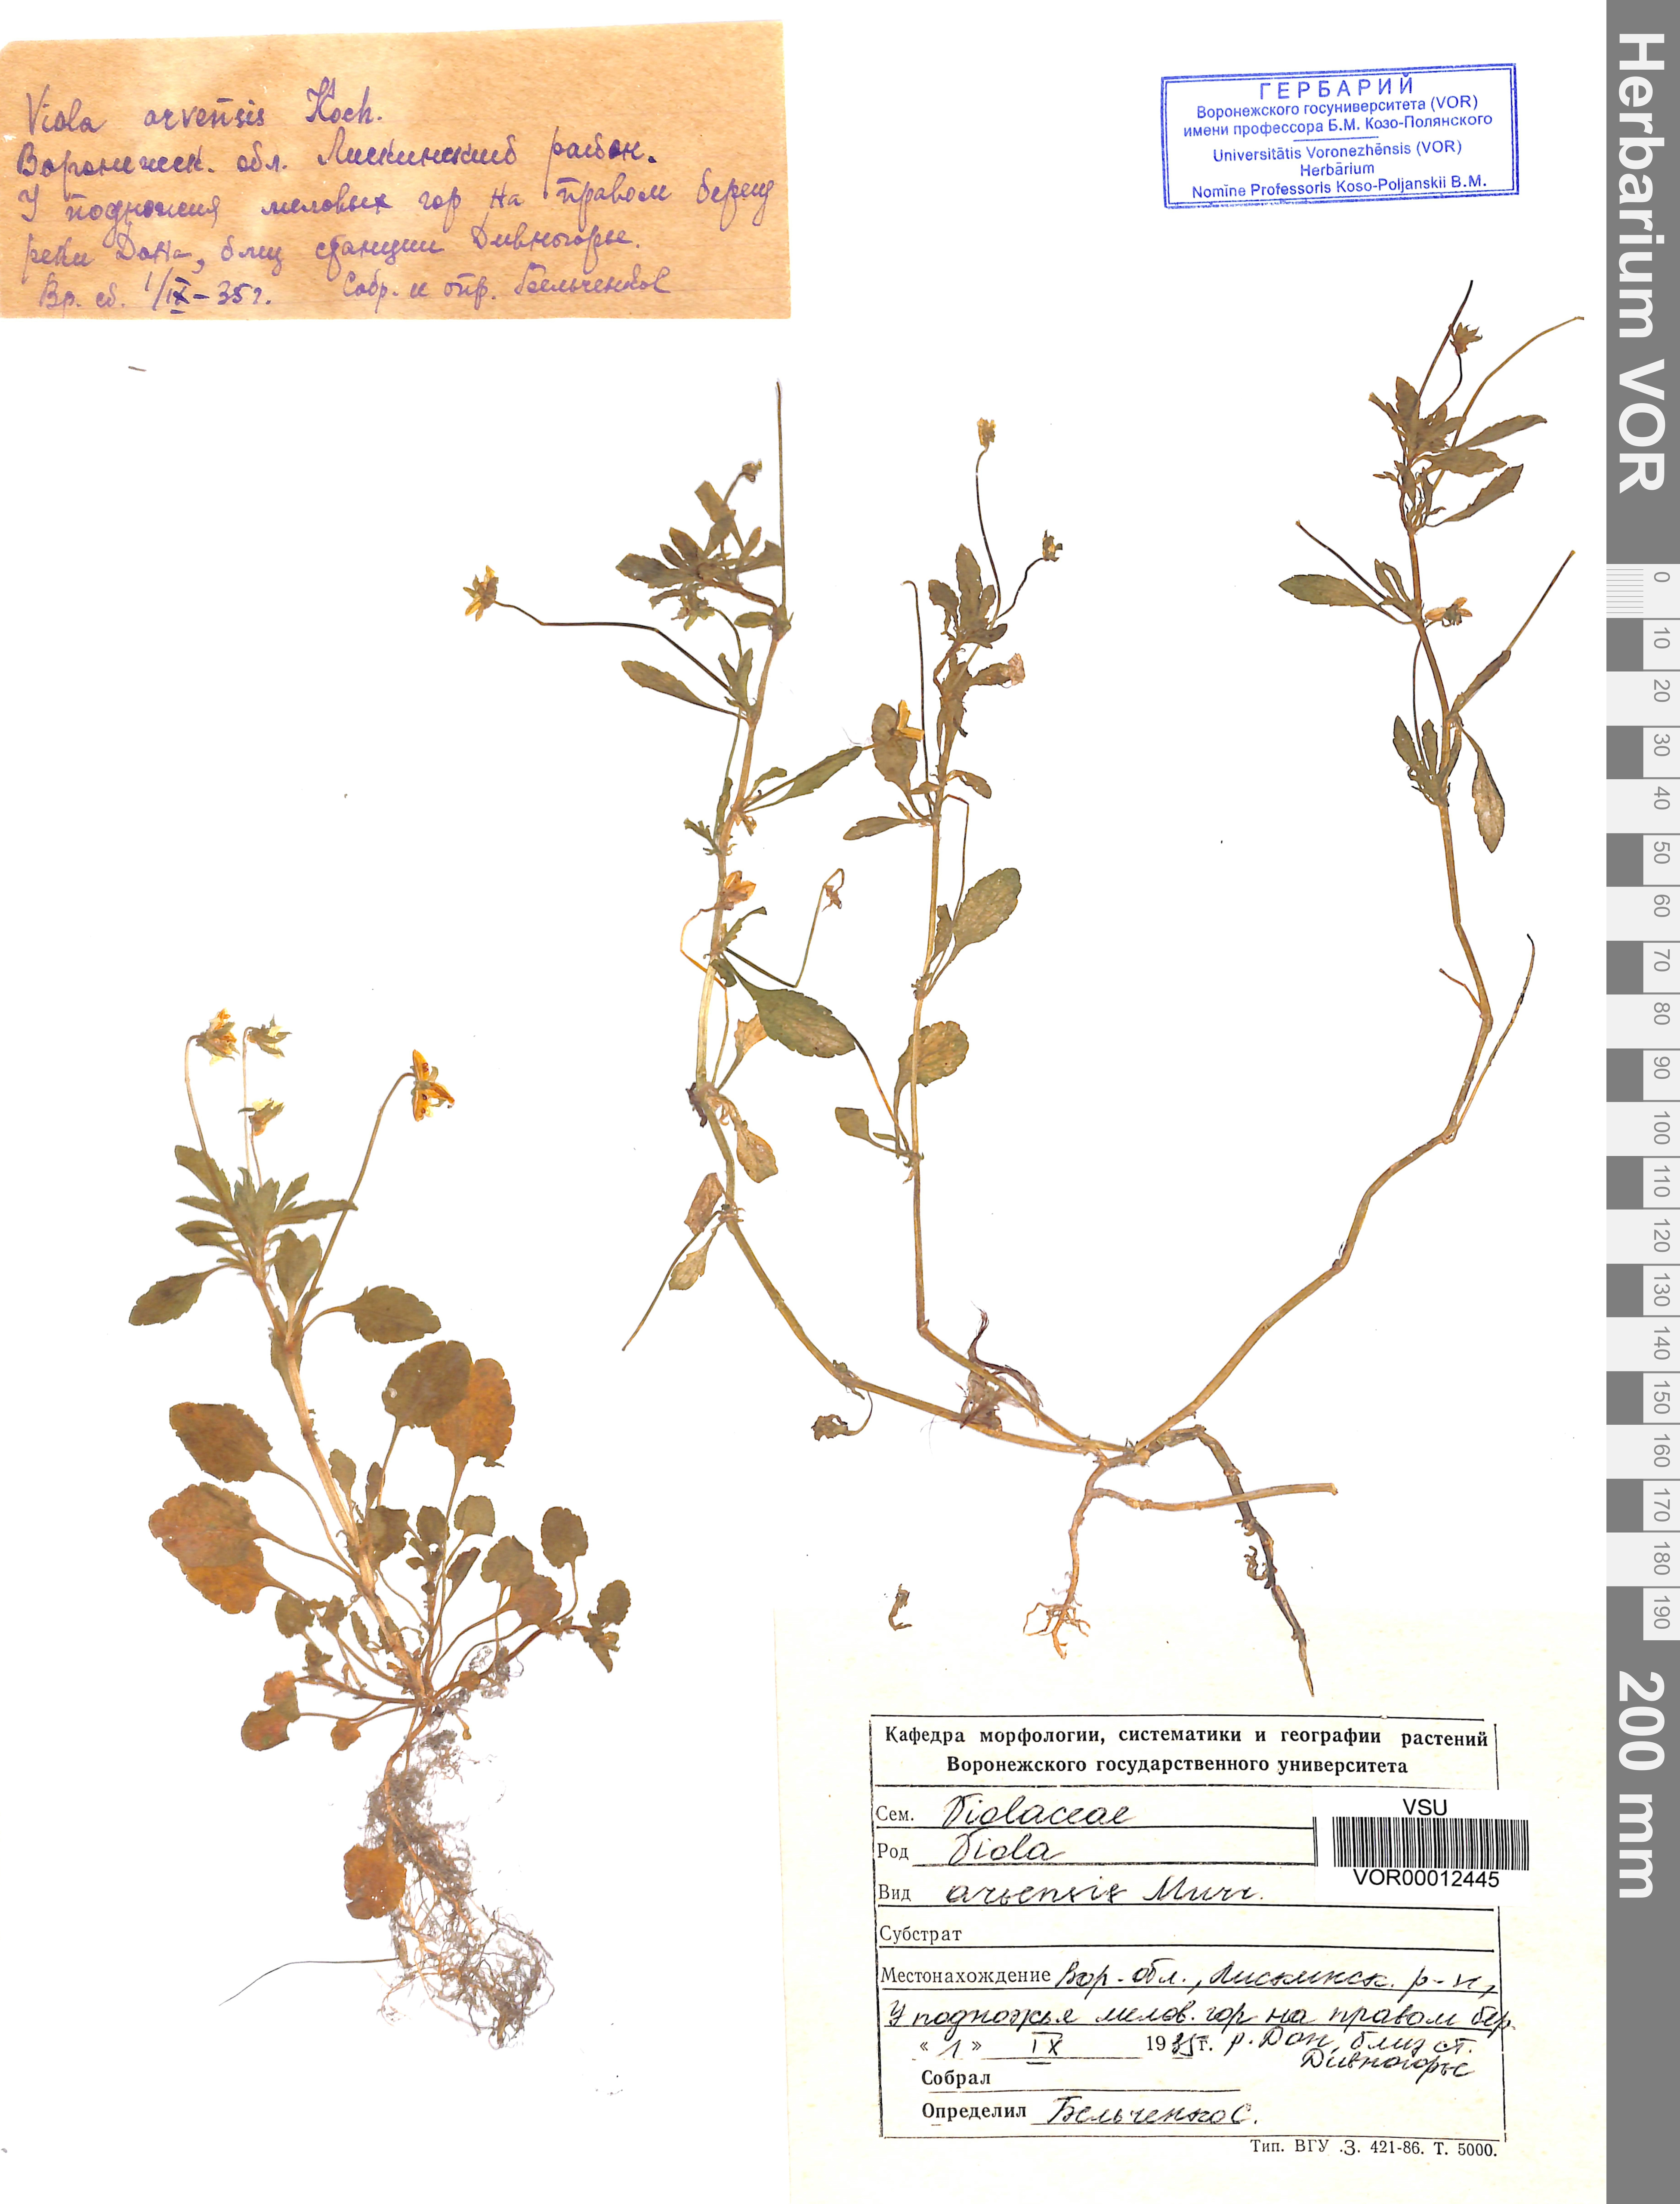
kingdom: Plantae
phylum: Tracheophyta
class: Magnoliopsida
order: Malpighiales
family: Violaceae
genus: Viola
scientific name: Viola arvensis
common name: Field pansy
